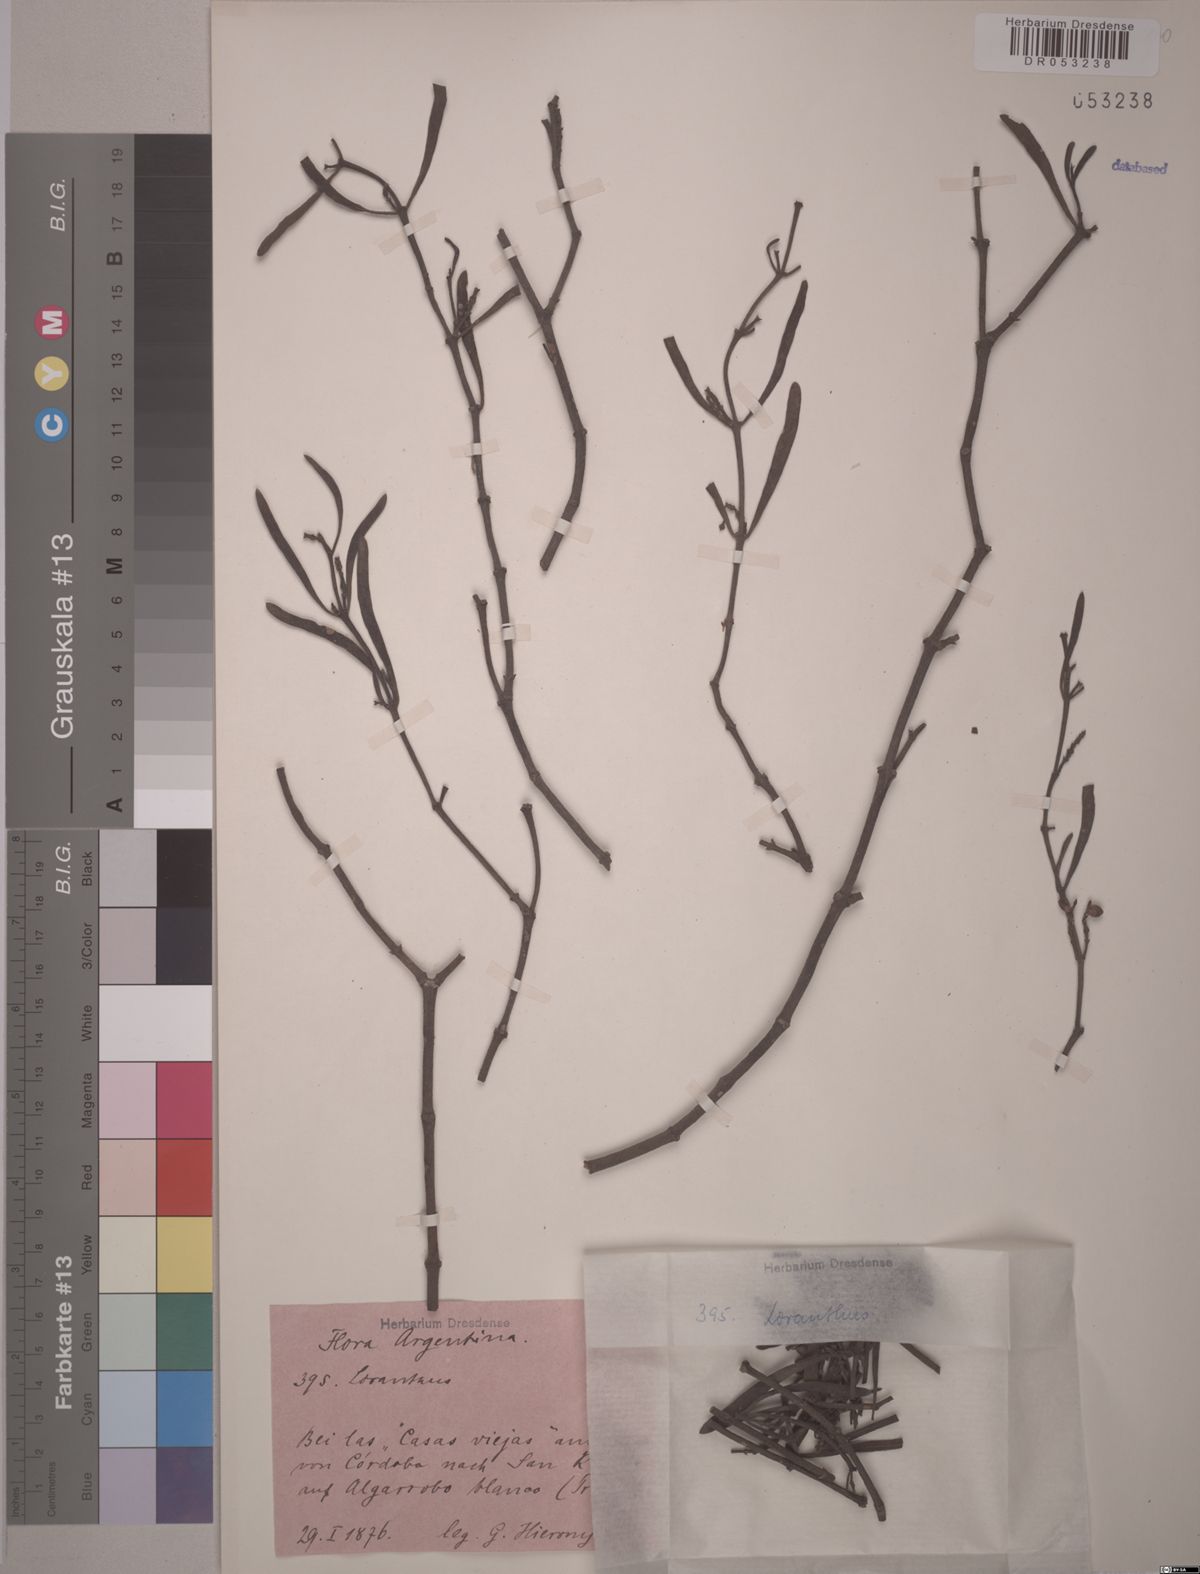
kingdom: Plantae
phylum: Tracheophyta
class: Magnoliopsida
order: Santalales
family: Loranthaceae
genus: Tripodanthus
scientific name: Tripodanthus flagellaris
